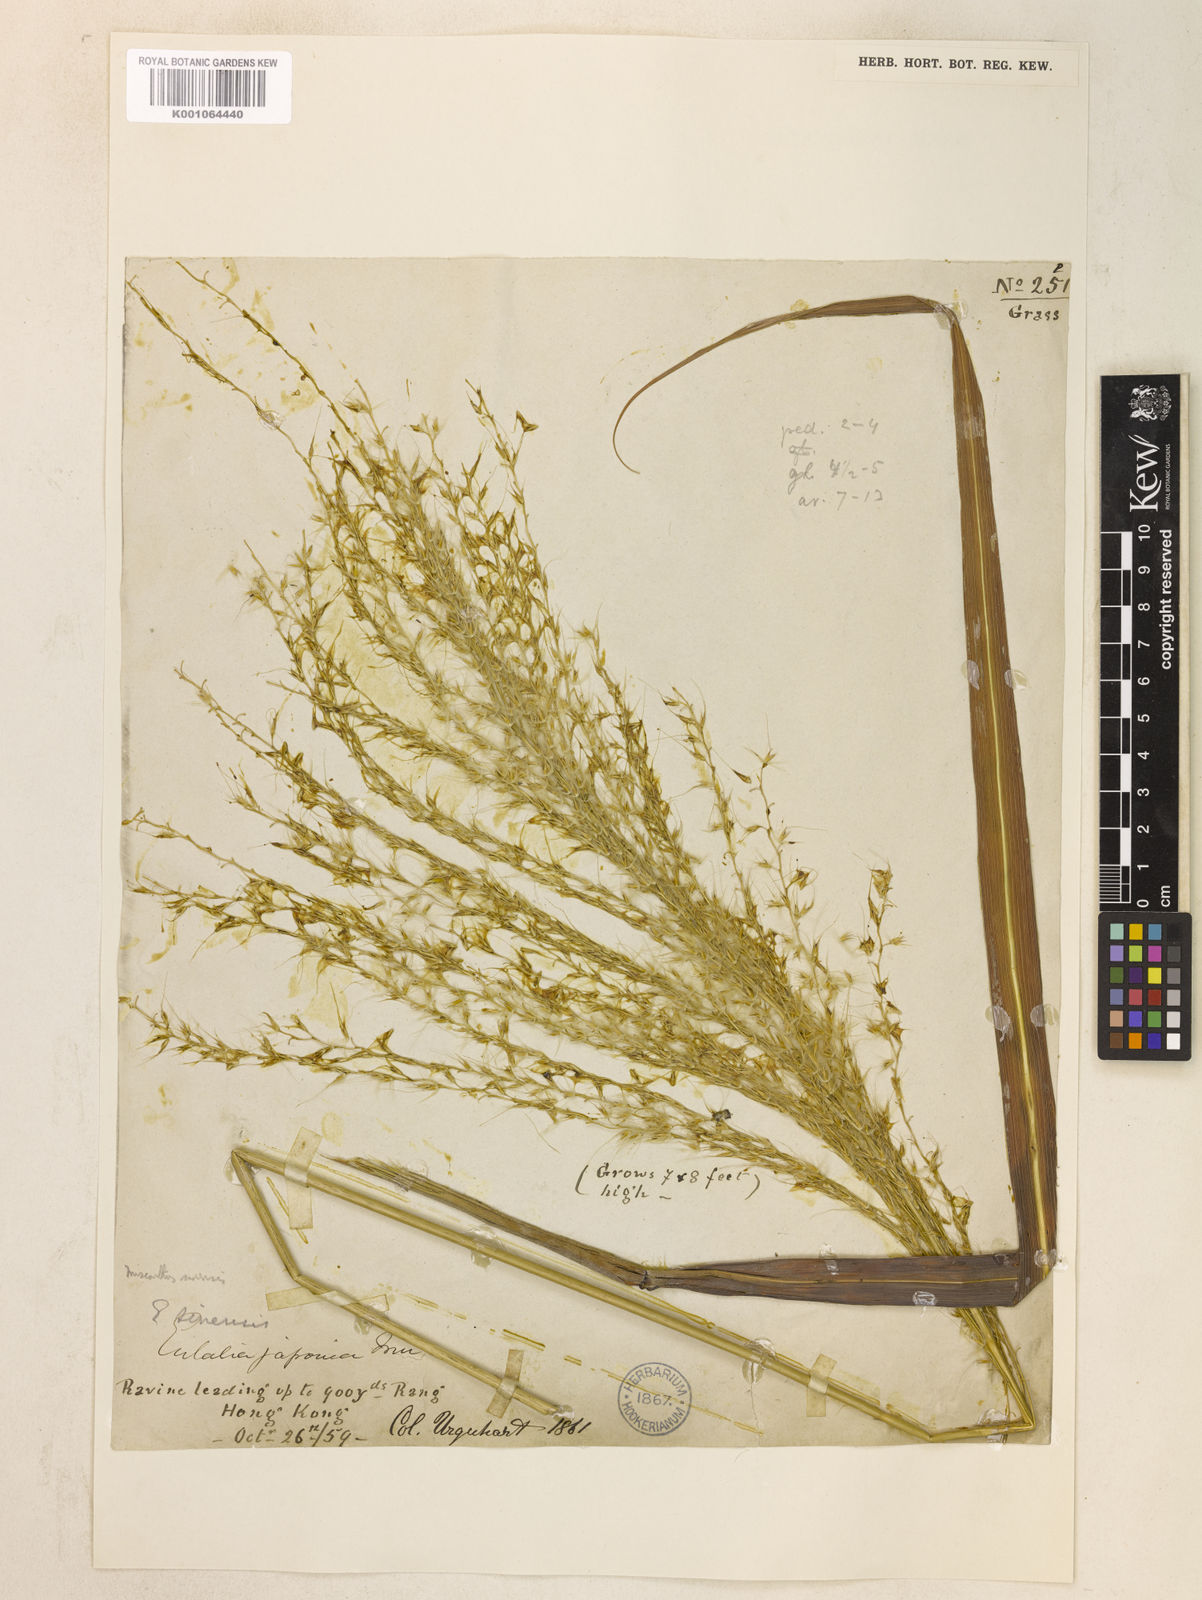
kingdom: Plantae
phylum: Tracheophyta
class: Liliopsida
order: Poales
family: Poaceae
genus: Miscanthus
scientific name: Miscanthus sinensis
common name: Chinese silvergrass
